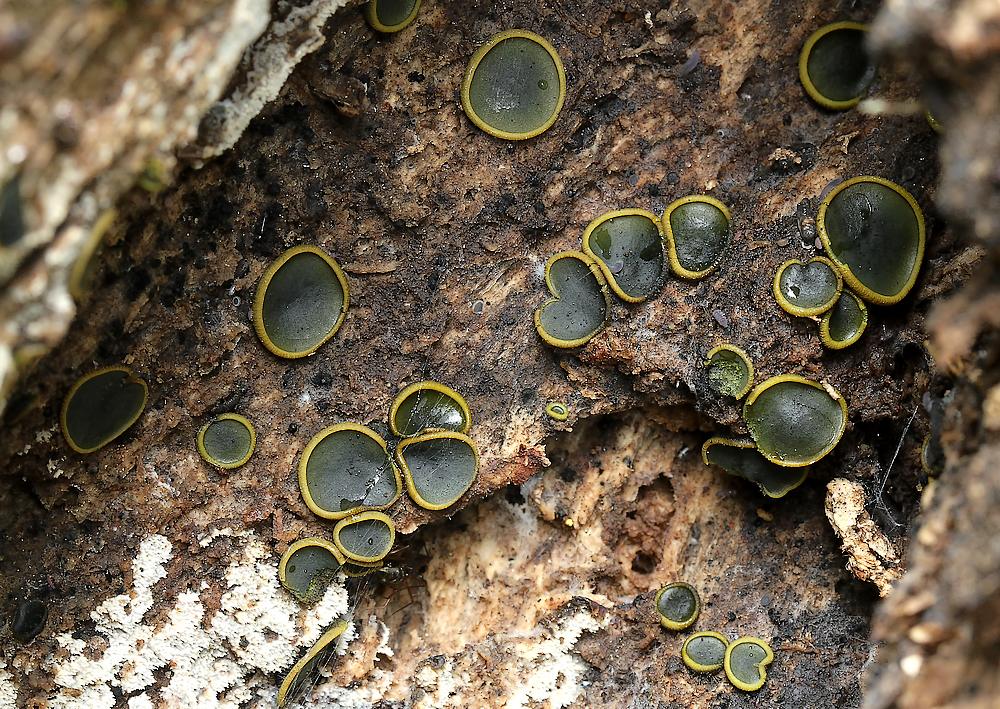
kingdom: Fungi
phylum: Ascomycota
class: Dothideomycetes
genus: Catinella
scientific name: Catinella olivacea
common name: olivenskive
